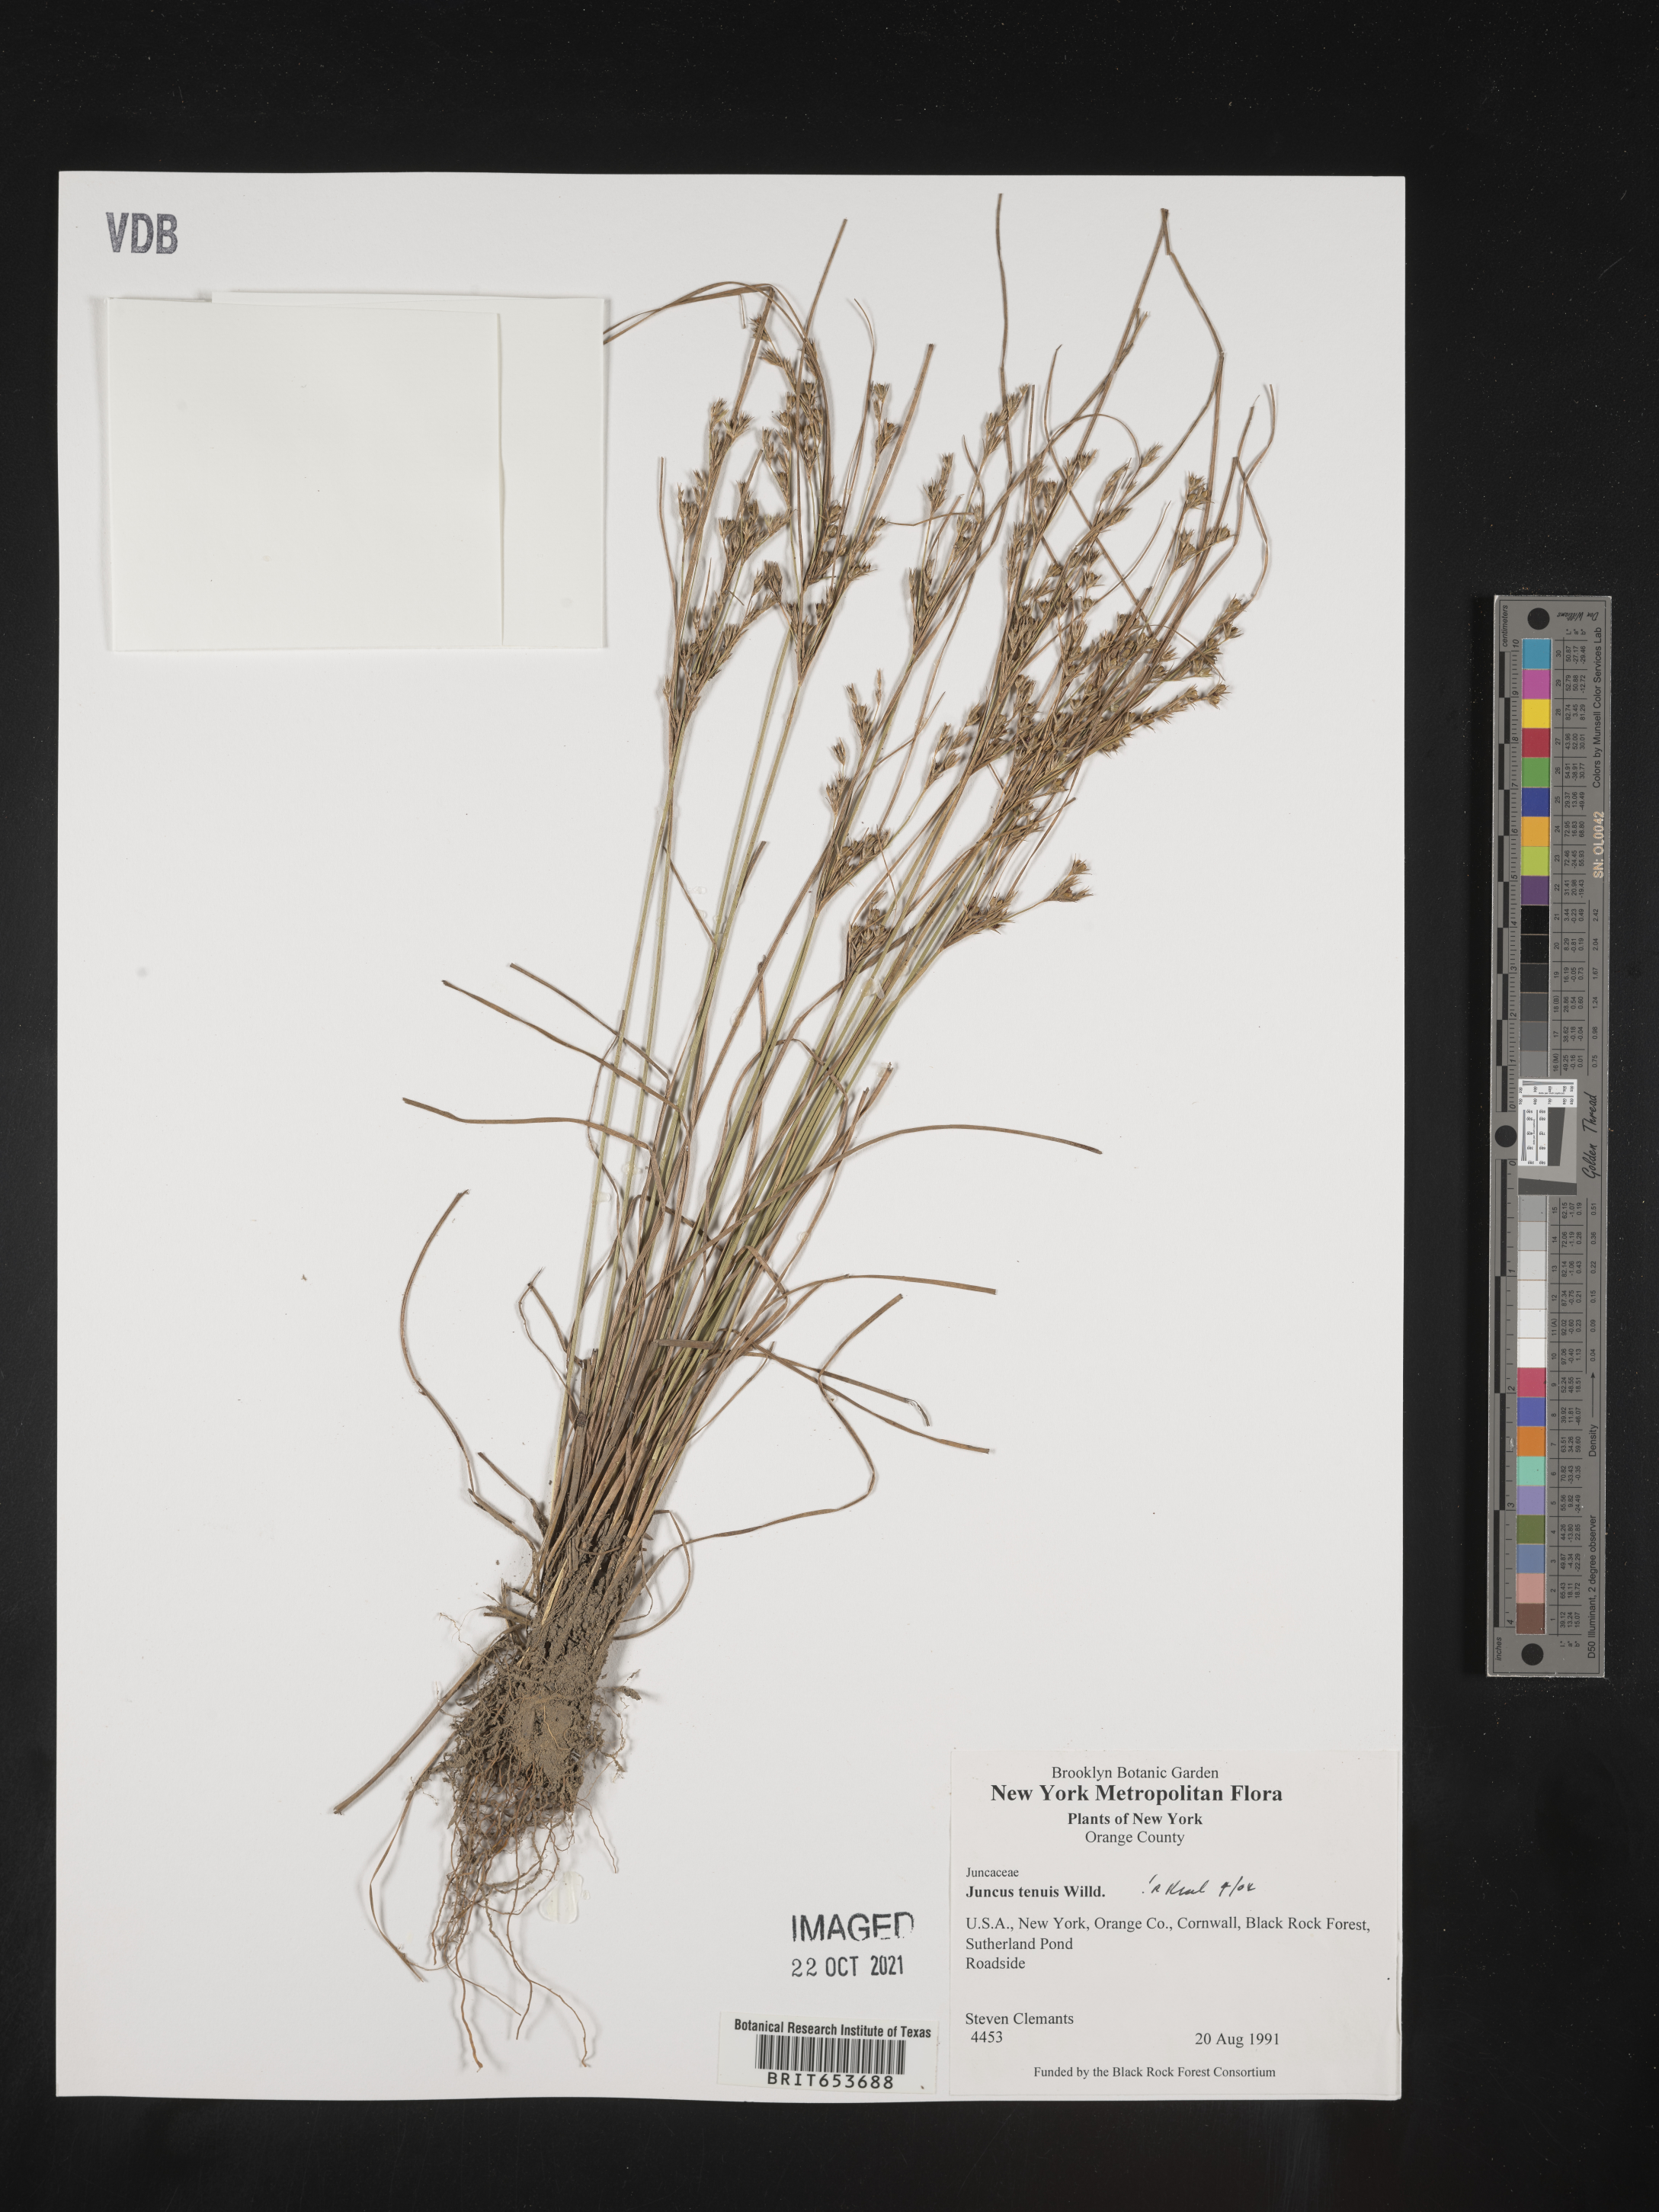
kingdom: Plantae
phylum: Tracheophyta
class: Liliopsida
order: Poales
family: Juncaceae
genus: Juncus
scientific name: Juncus tenuis
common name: Slender rush
